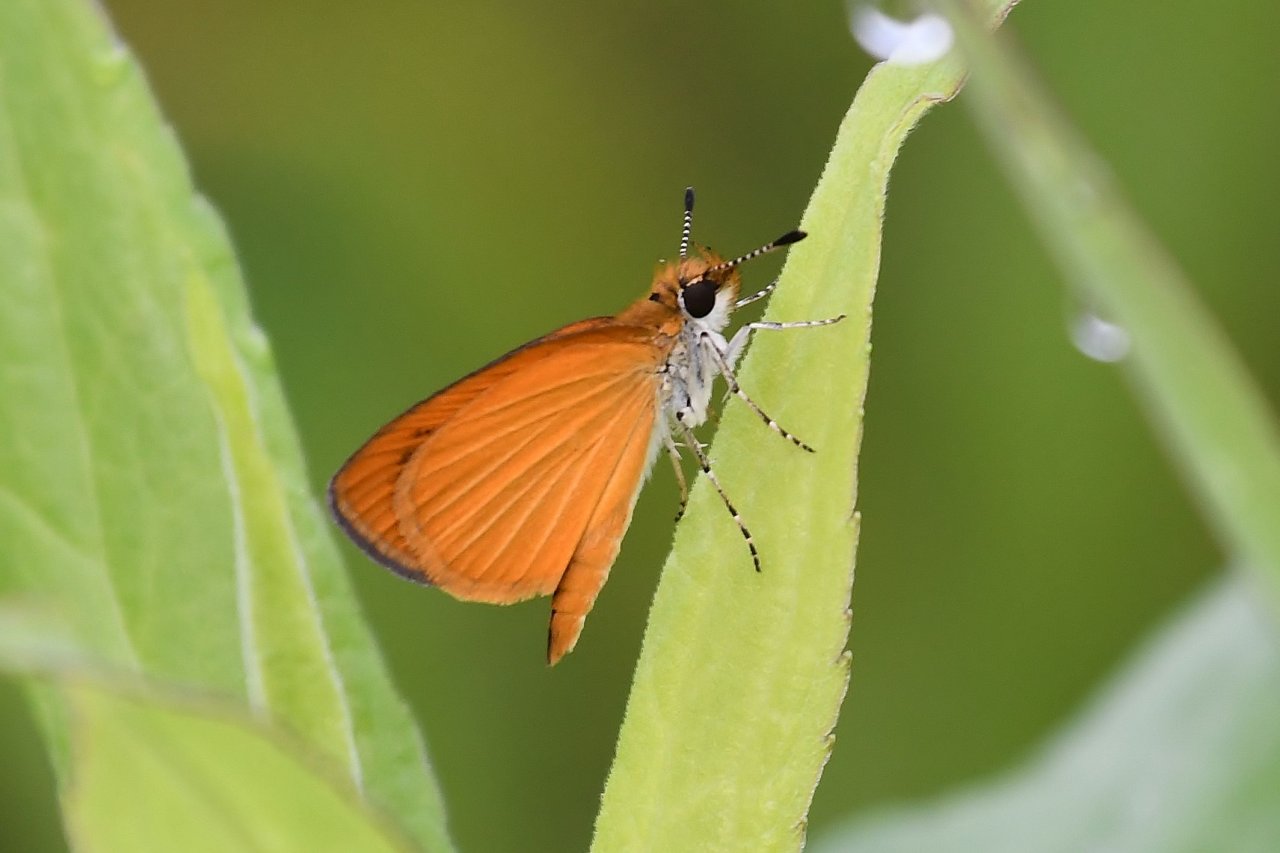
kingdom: Animalia
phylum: Arthropoda
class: Insecta
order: Lepidoptera
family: Hesperiidae
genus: Ancyloxypha
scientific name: Ancyloxypha numitor
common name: Least Skipper
